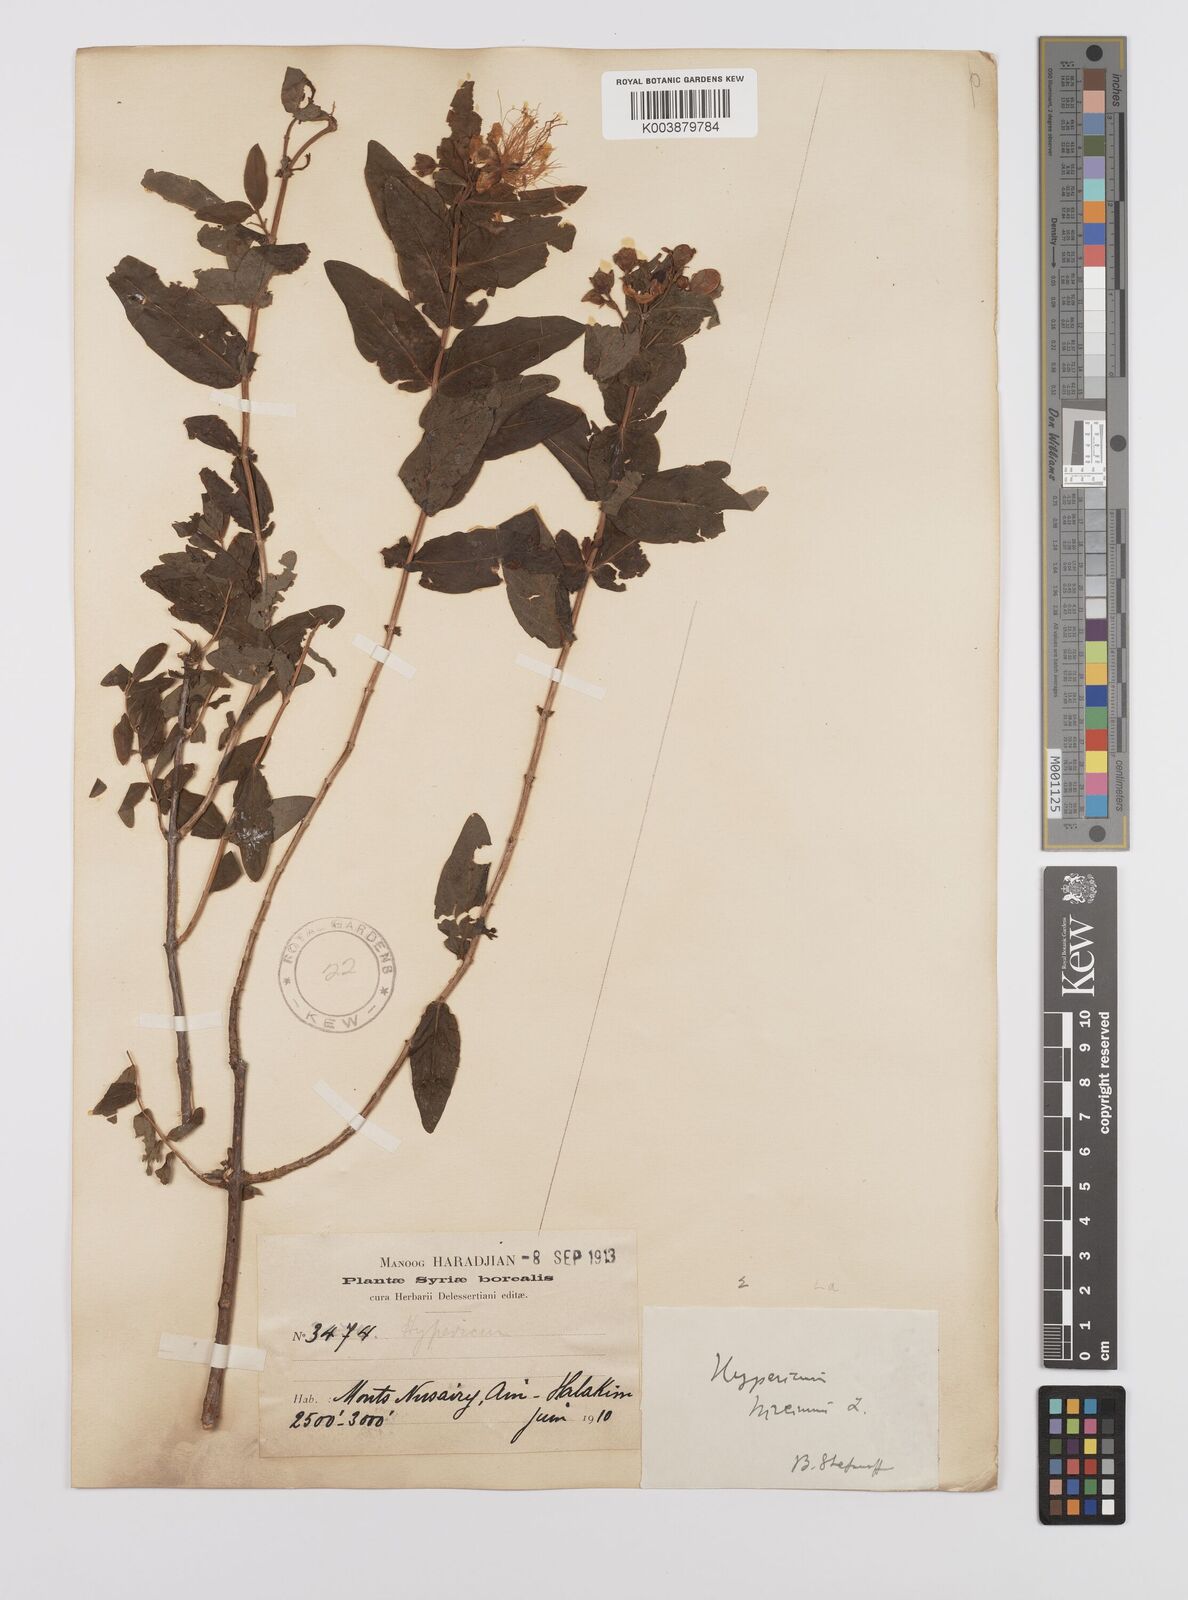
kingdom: Plantae
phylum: Tracheophyta
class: Magnoliopsida
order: Malpighiales
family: Hypericaceae
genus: Hypericum
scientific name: Hypericum hircinum
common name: Stinking tutsan
